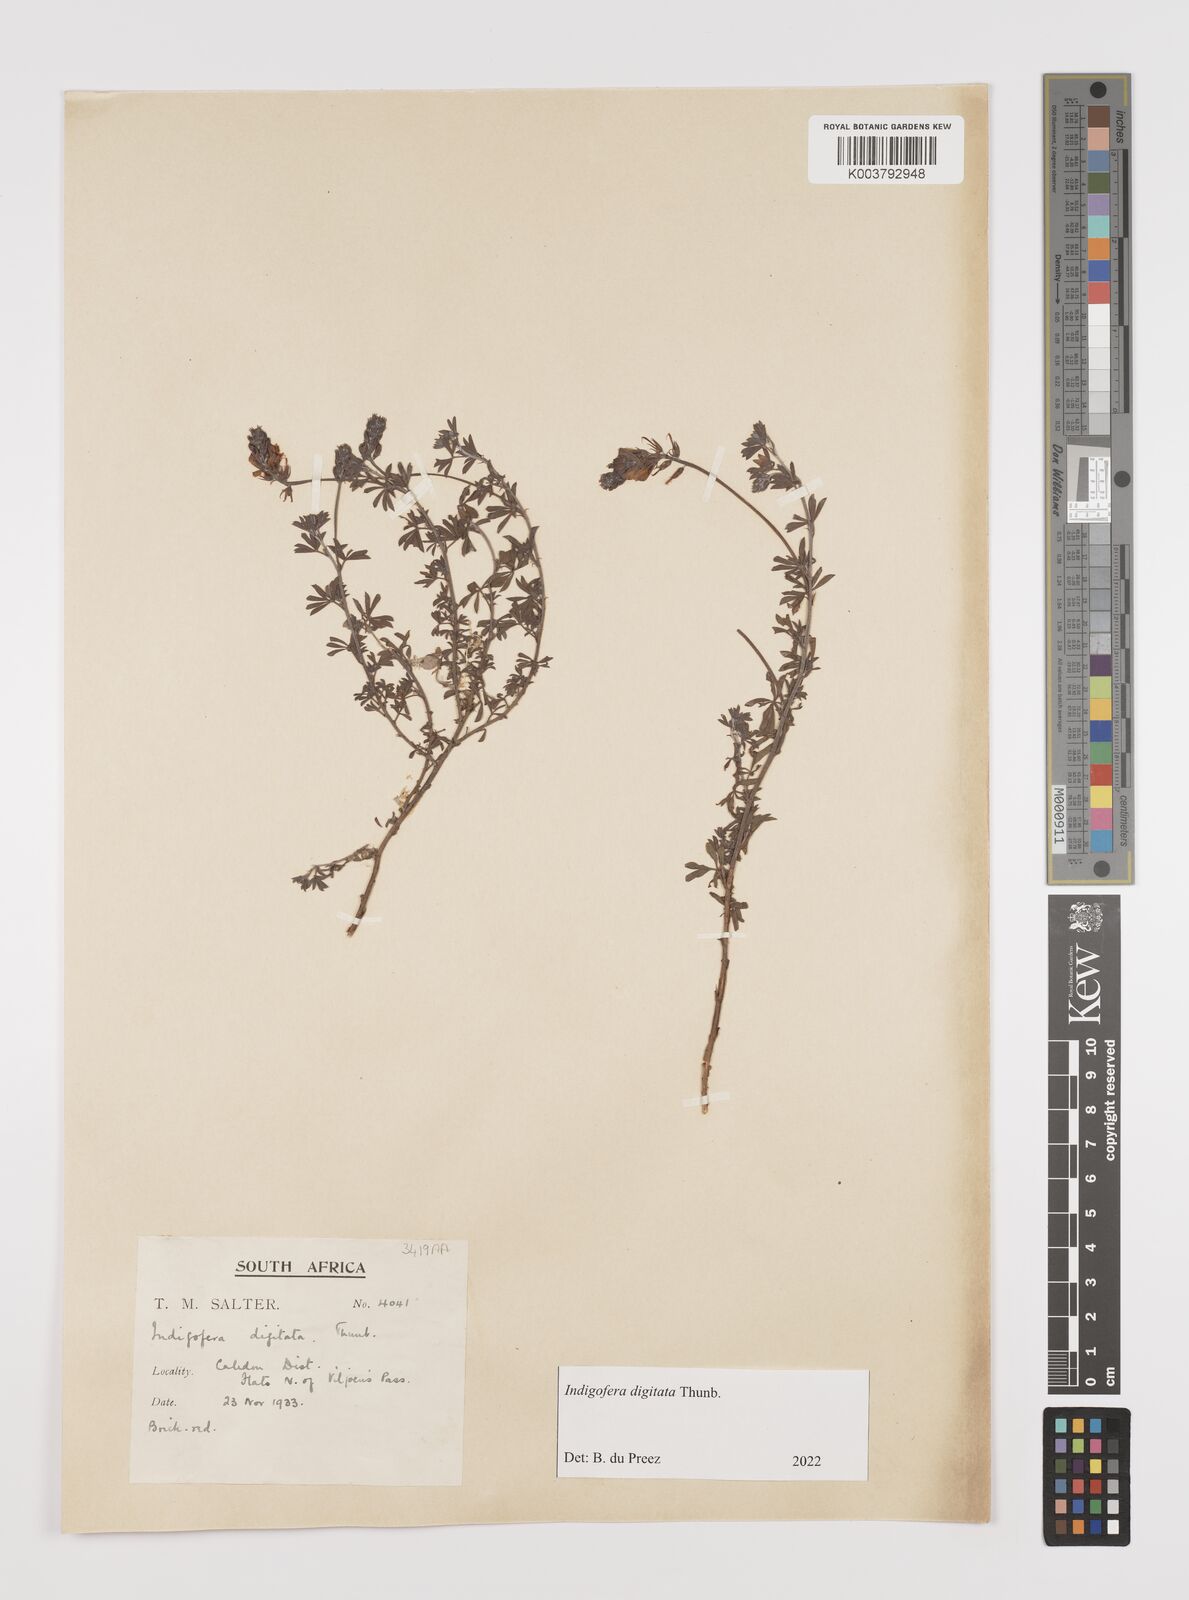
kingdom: Plantae
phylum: Tracheophyta
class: Magnoliopsida
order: Fabales
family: Fabaceae
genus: Indigofera
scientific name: Indigofera
